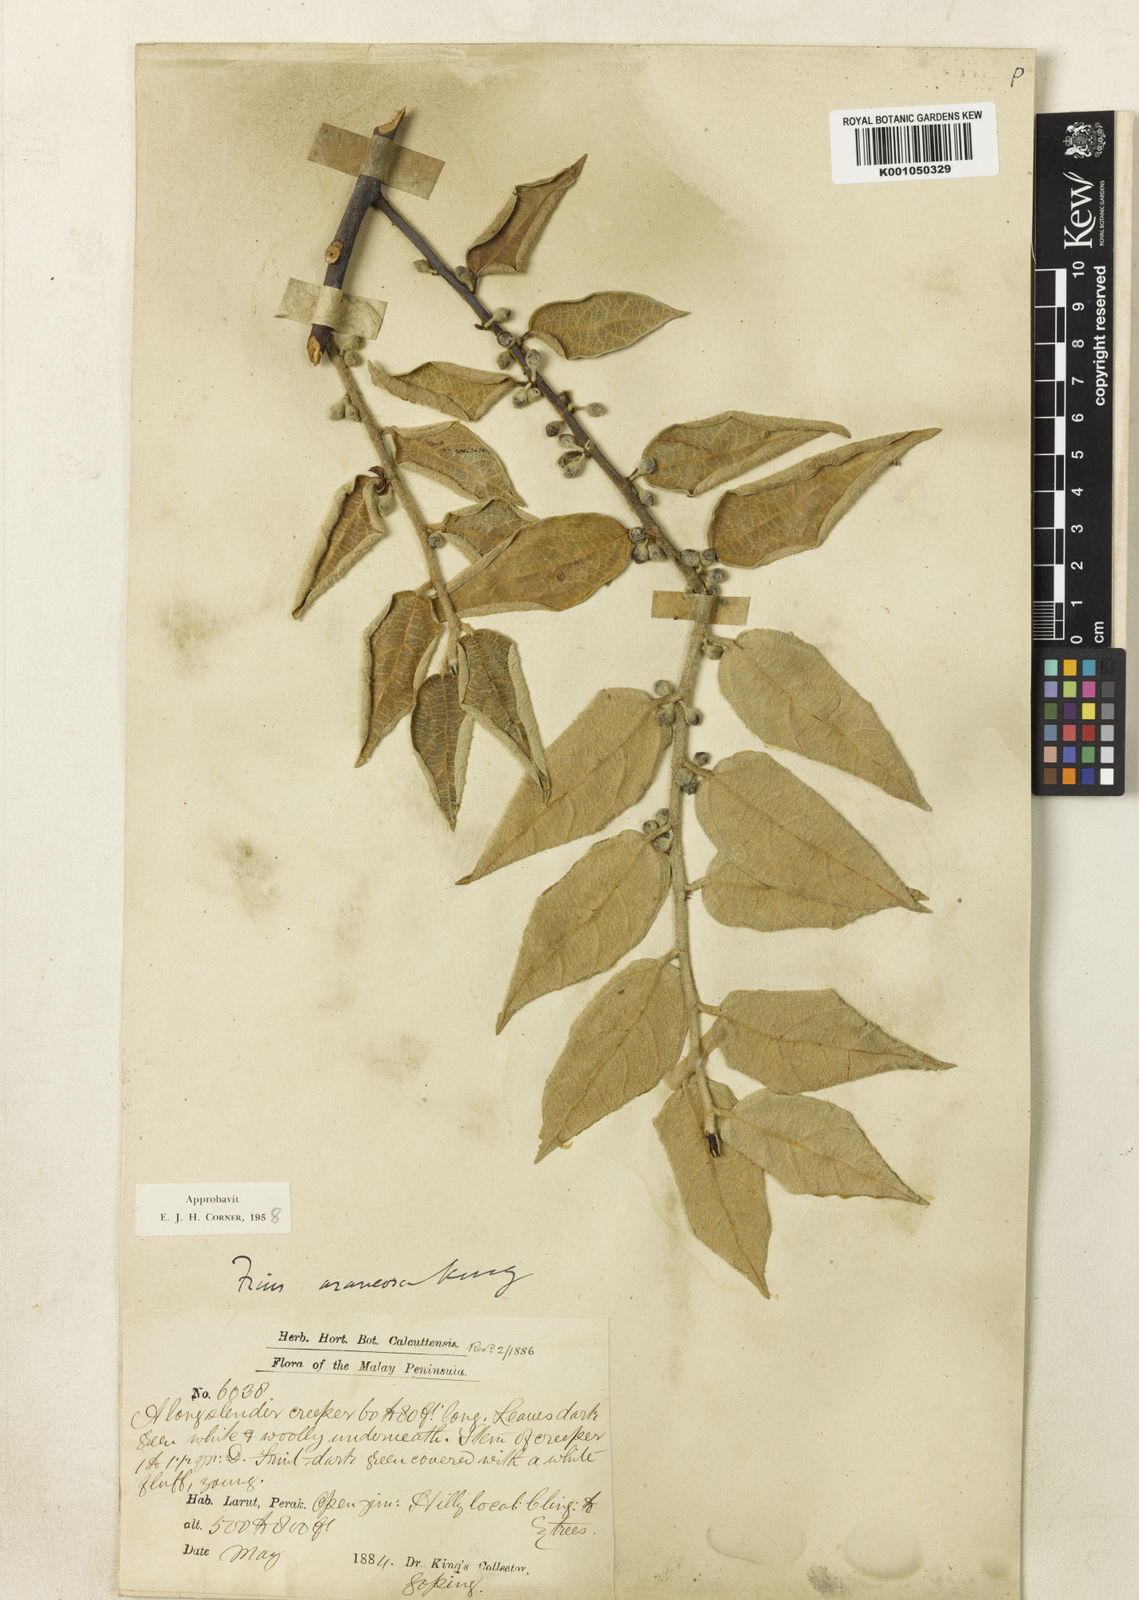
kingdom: Plantae
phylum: Tracheophyta
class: Magnoliopsida
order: Rosales
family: Moraceae
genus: Ficus
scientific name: Ficus araneosa
